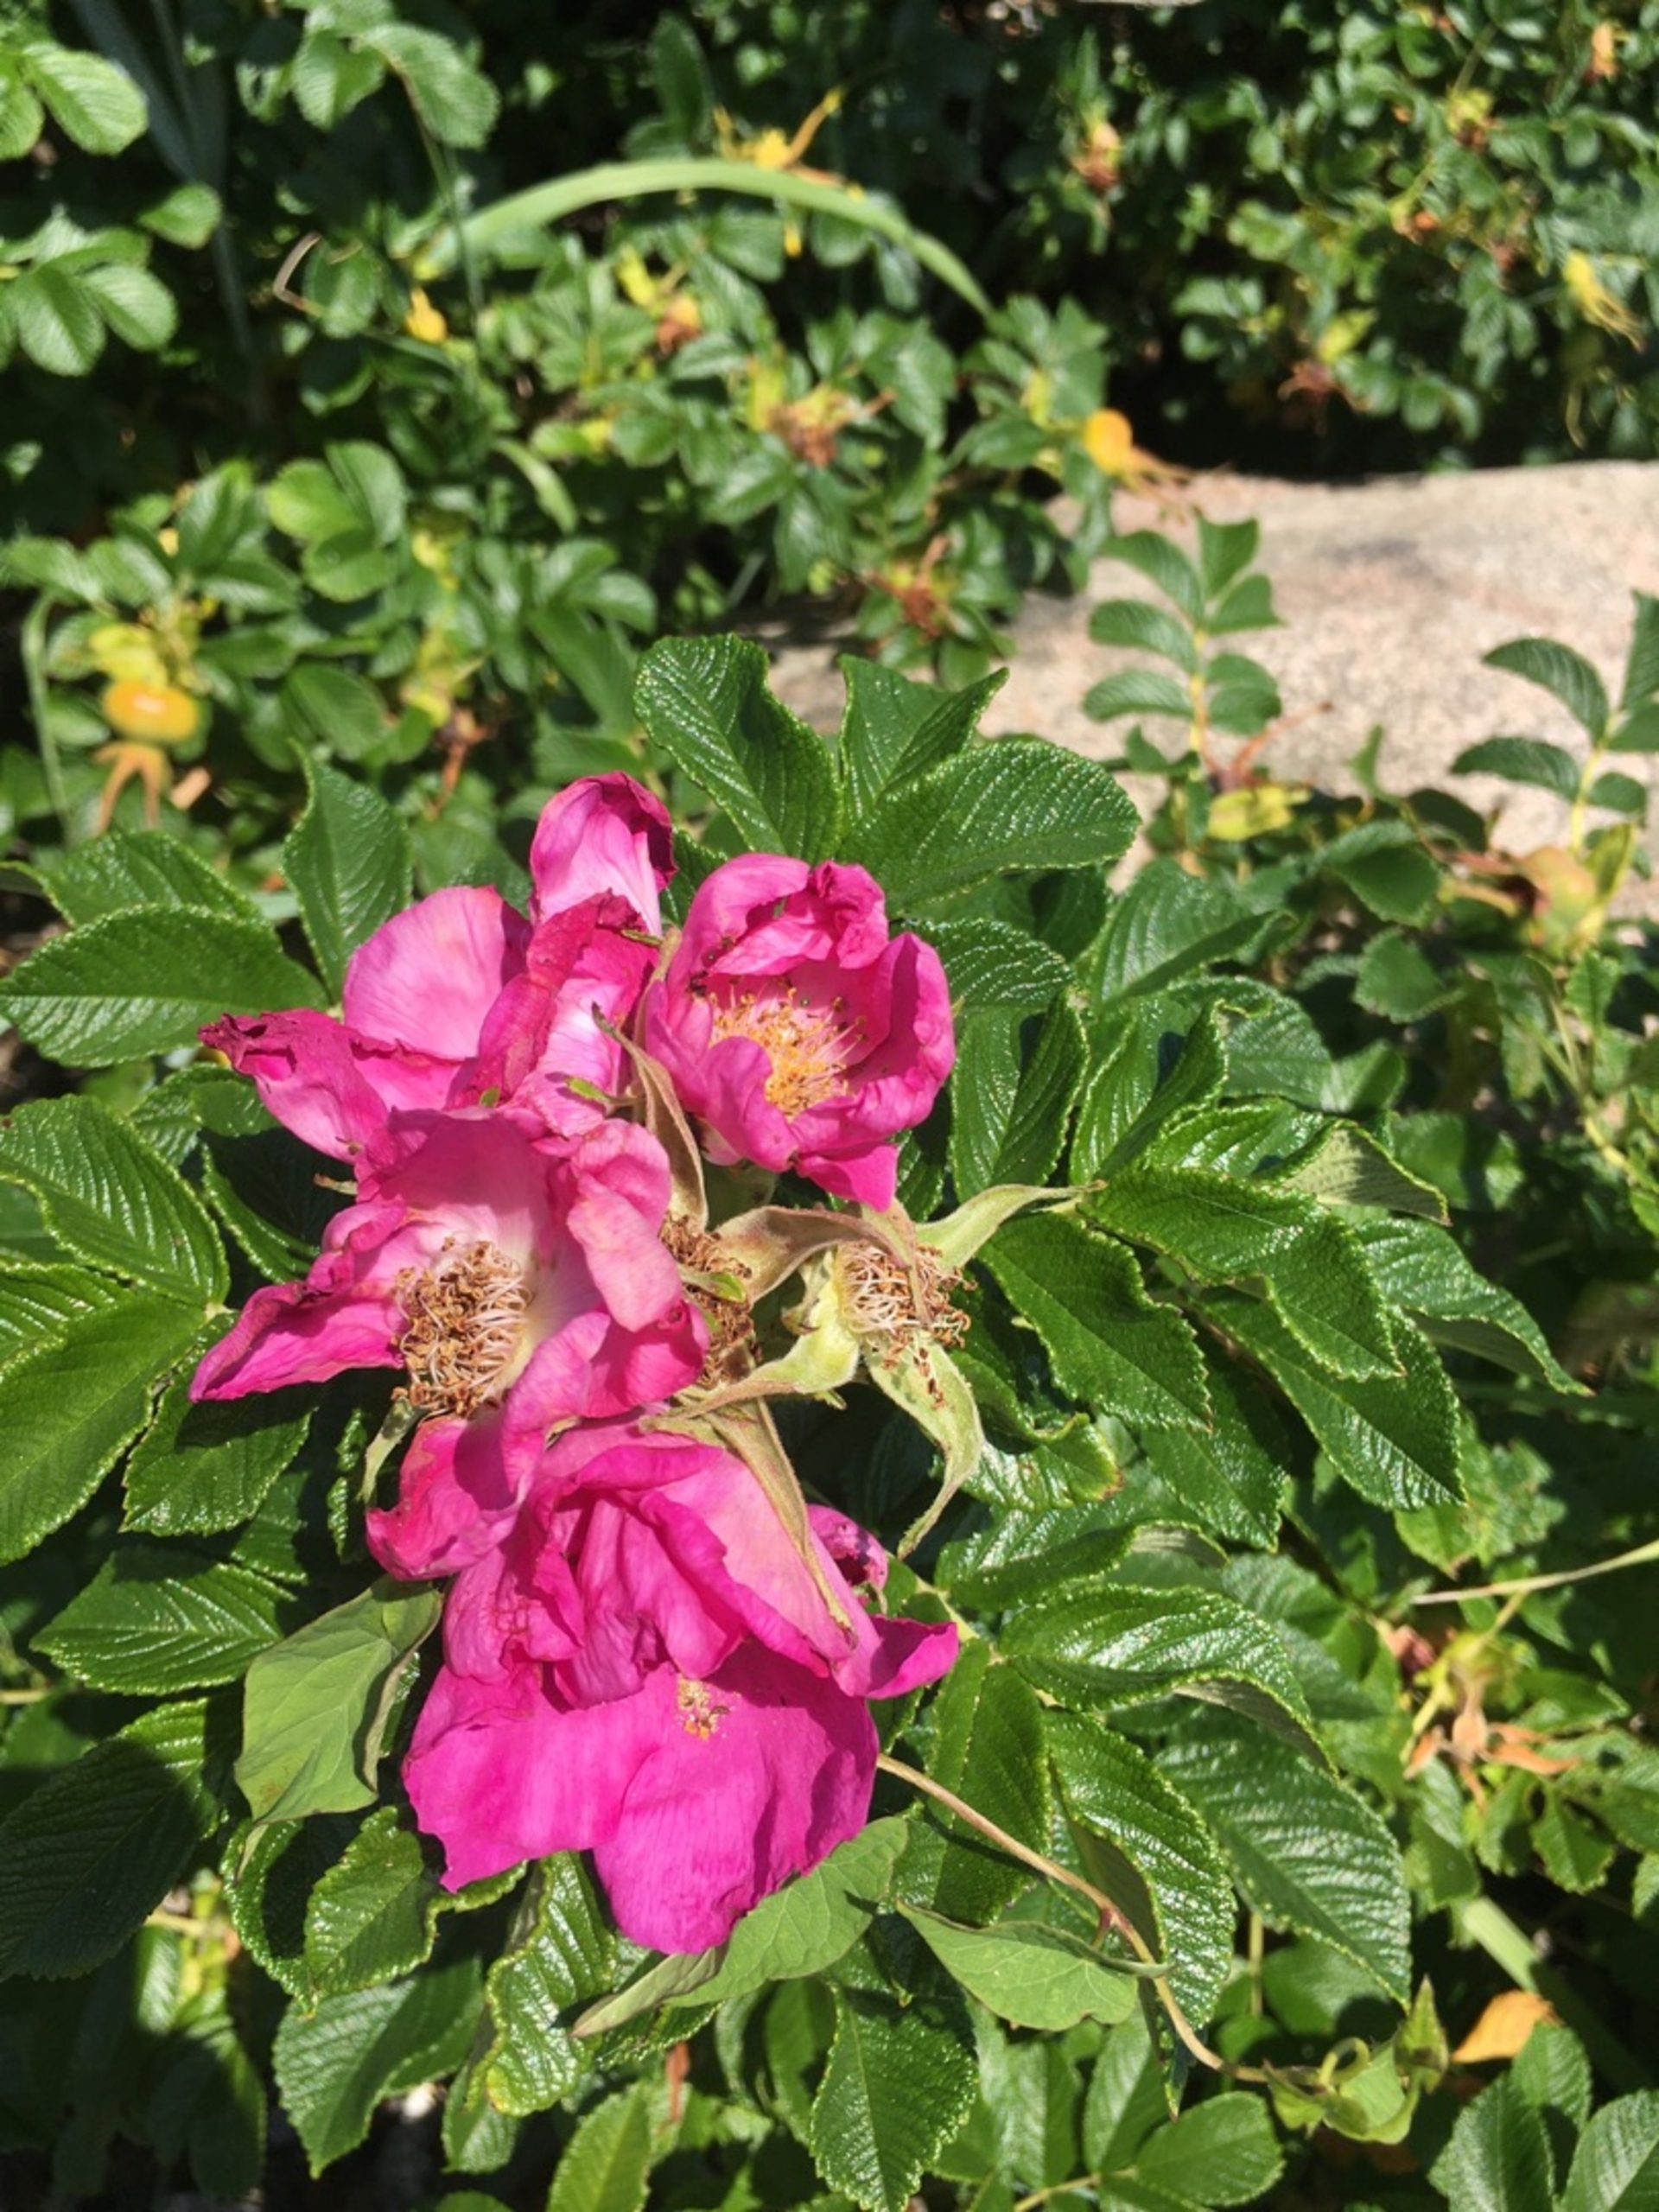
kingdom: Plantae
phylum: Tracheophyta
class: Magnoliopsida
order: Rosales
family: Rosaceae
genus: Rosa
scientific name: Rosa rugosa
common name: Rynket rose
